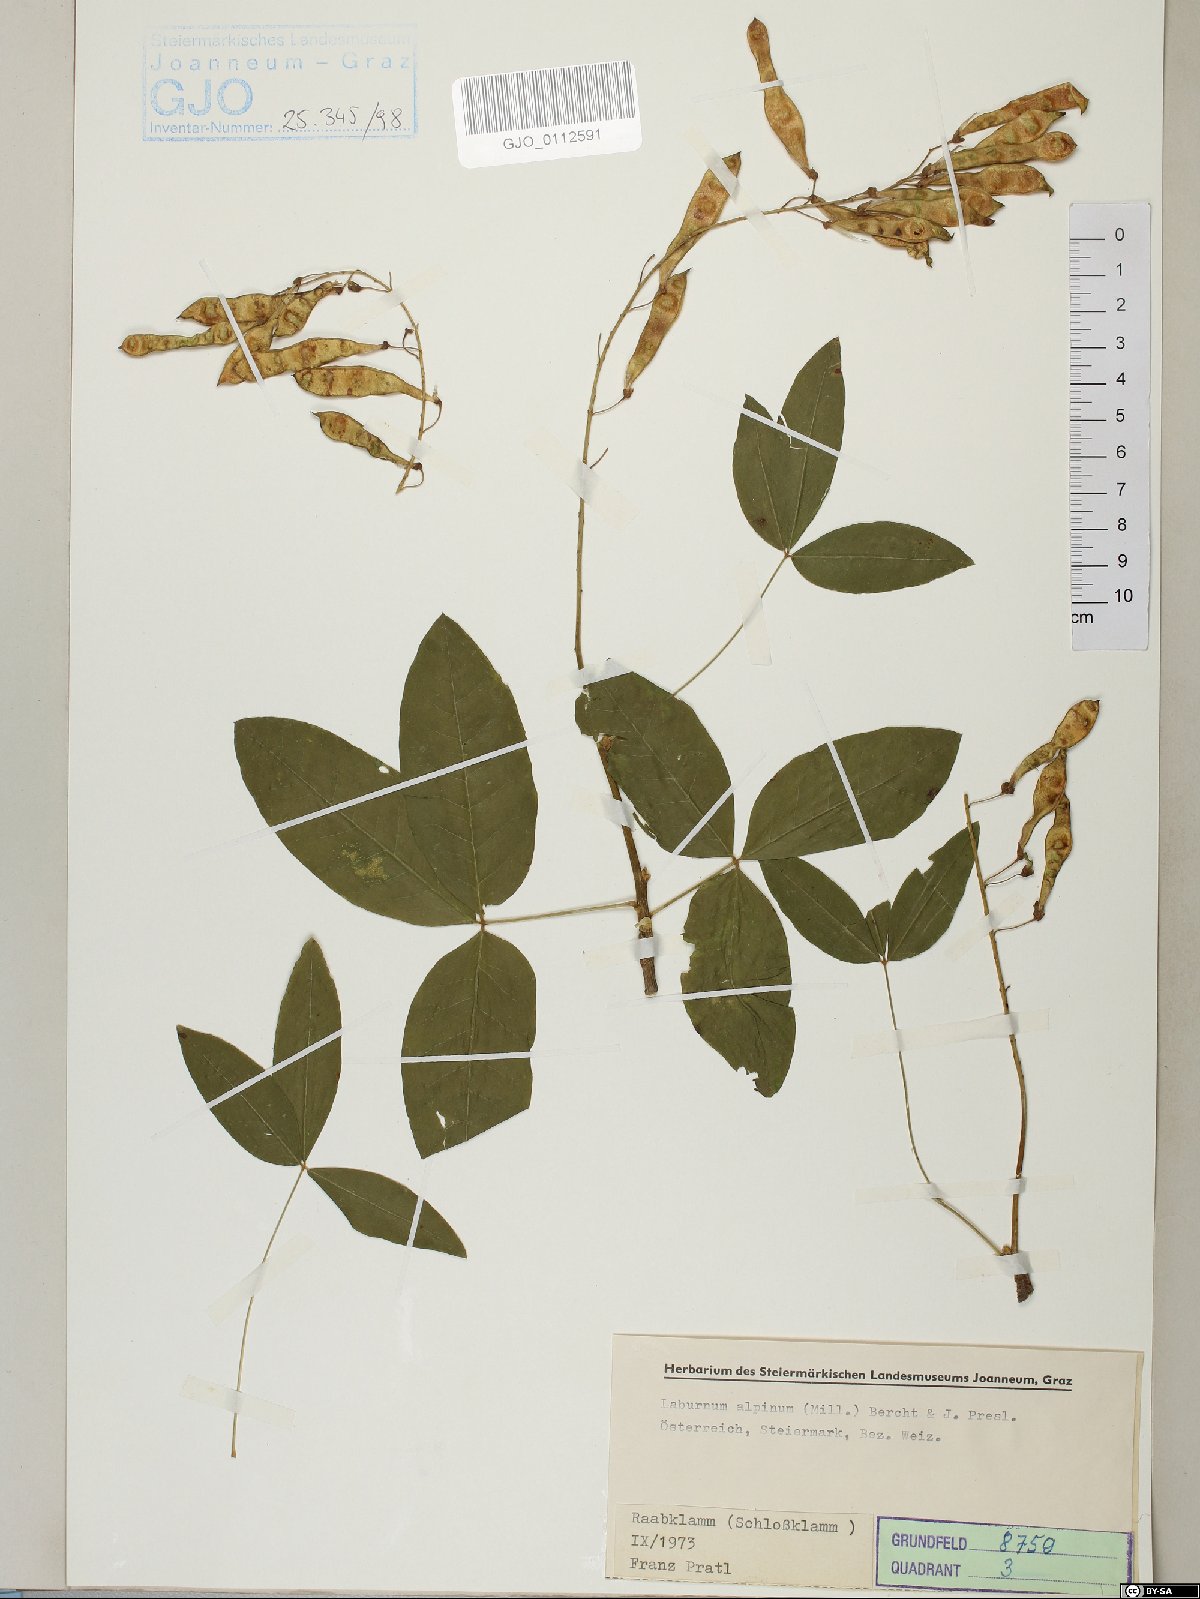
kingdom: Plantae
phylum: Tracheophyta
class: Magnoliopsida
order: Fabales
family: Fabaceae
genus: Laburnum
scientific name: Laburnum alpinum
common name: Scottish laburnum
